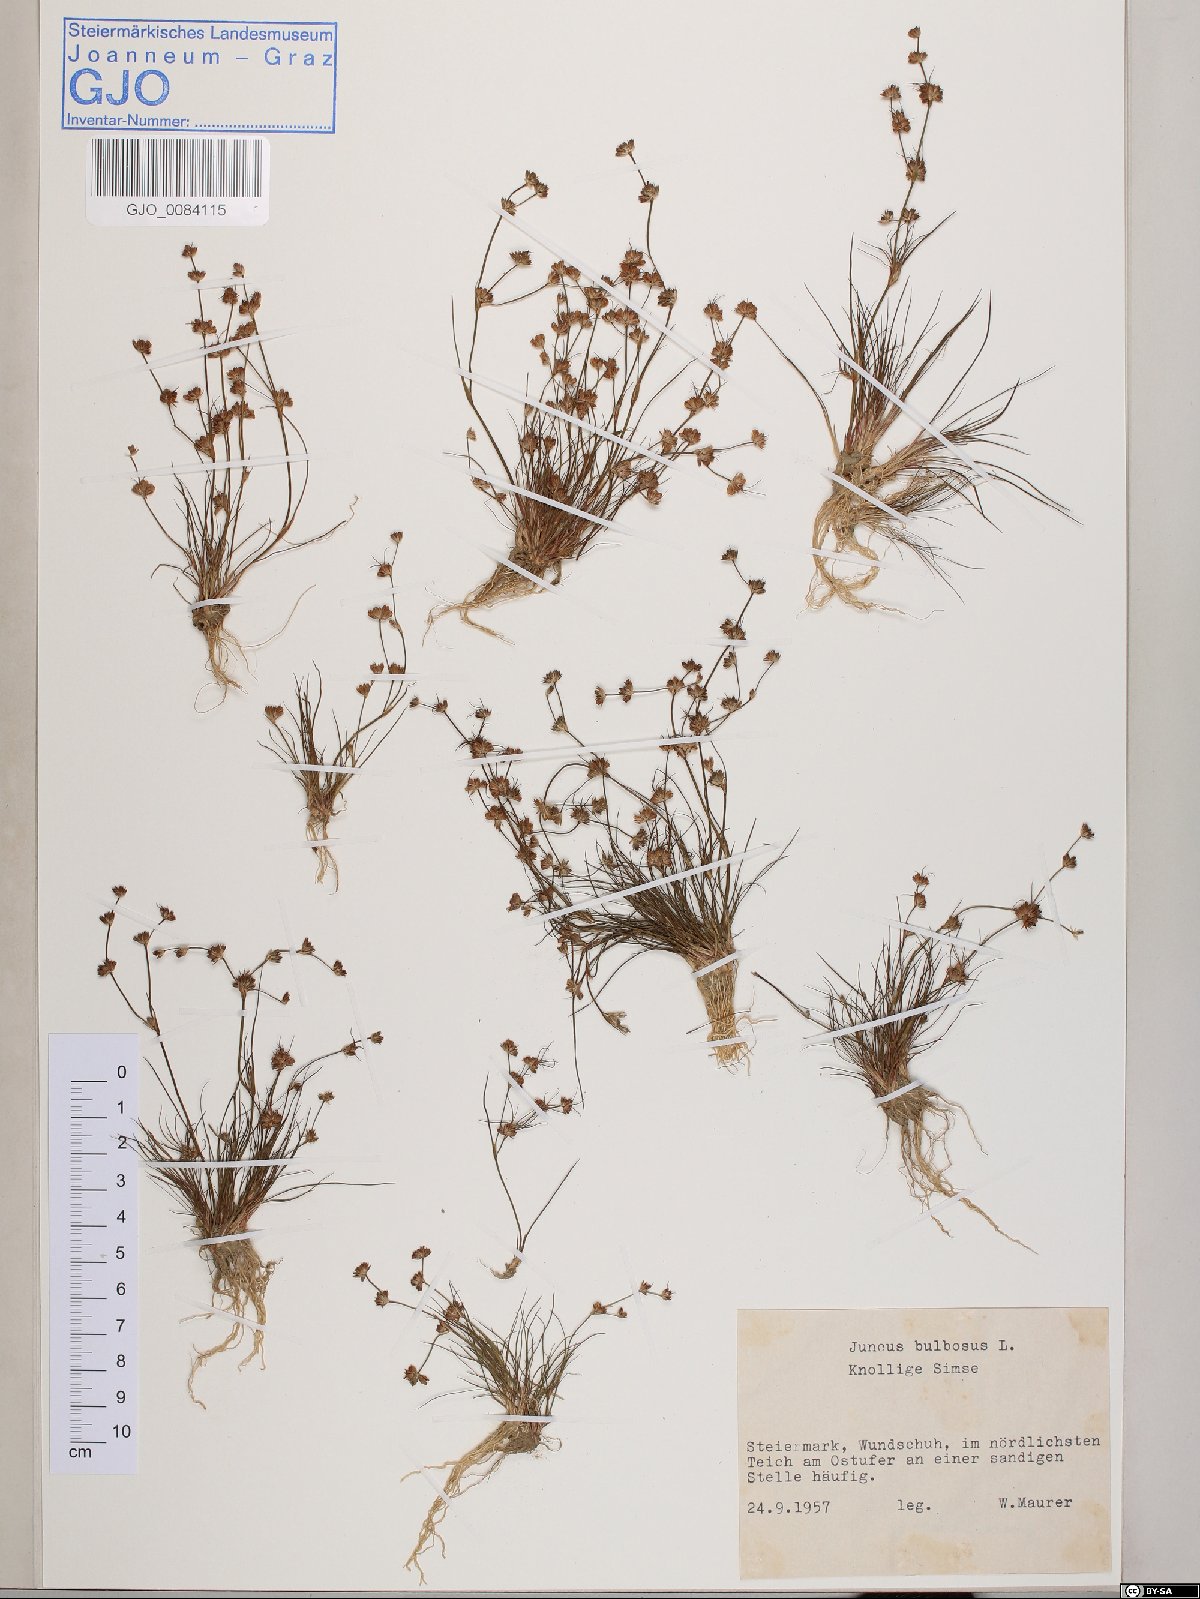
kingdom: Plantae
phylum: Tracheophyta
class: Liliopsida
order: Poales
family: Juncaceae
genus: Juncus
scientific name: Juncus bulbosus
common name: Bulbous rush
